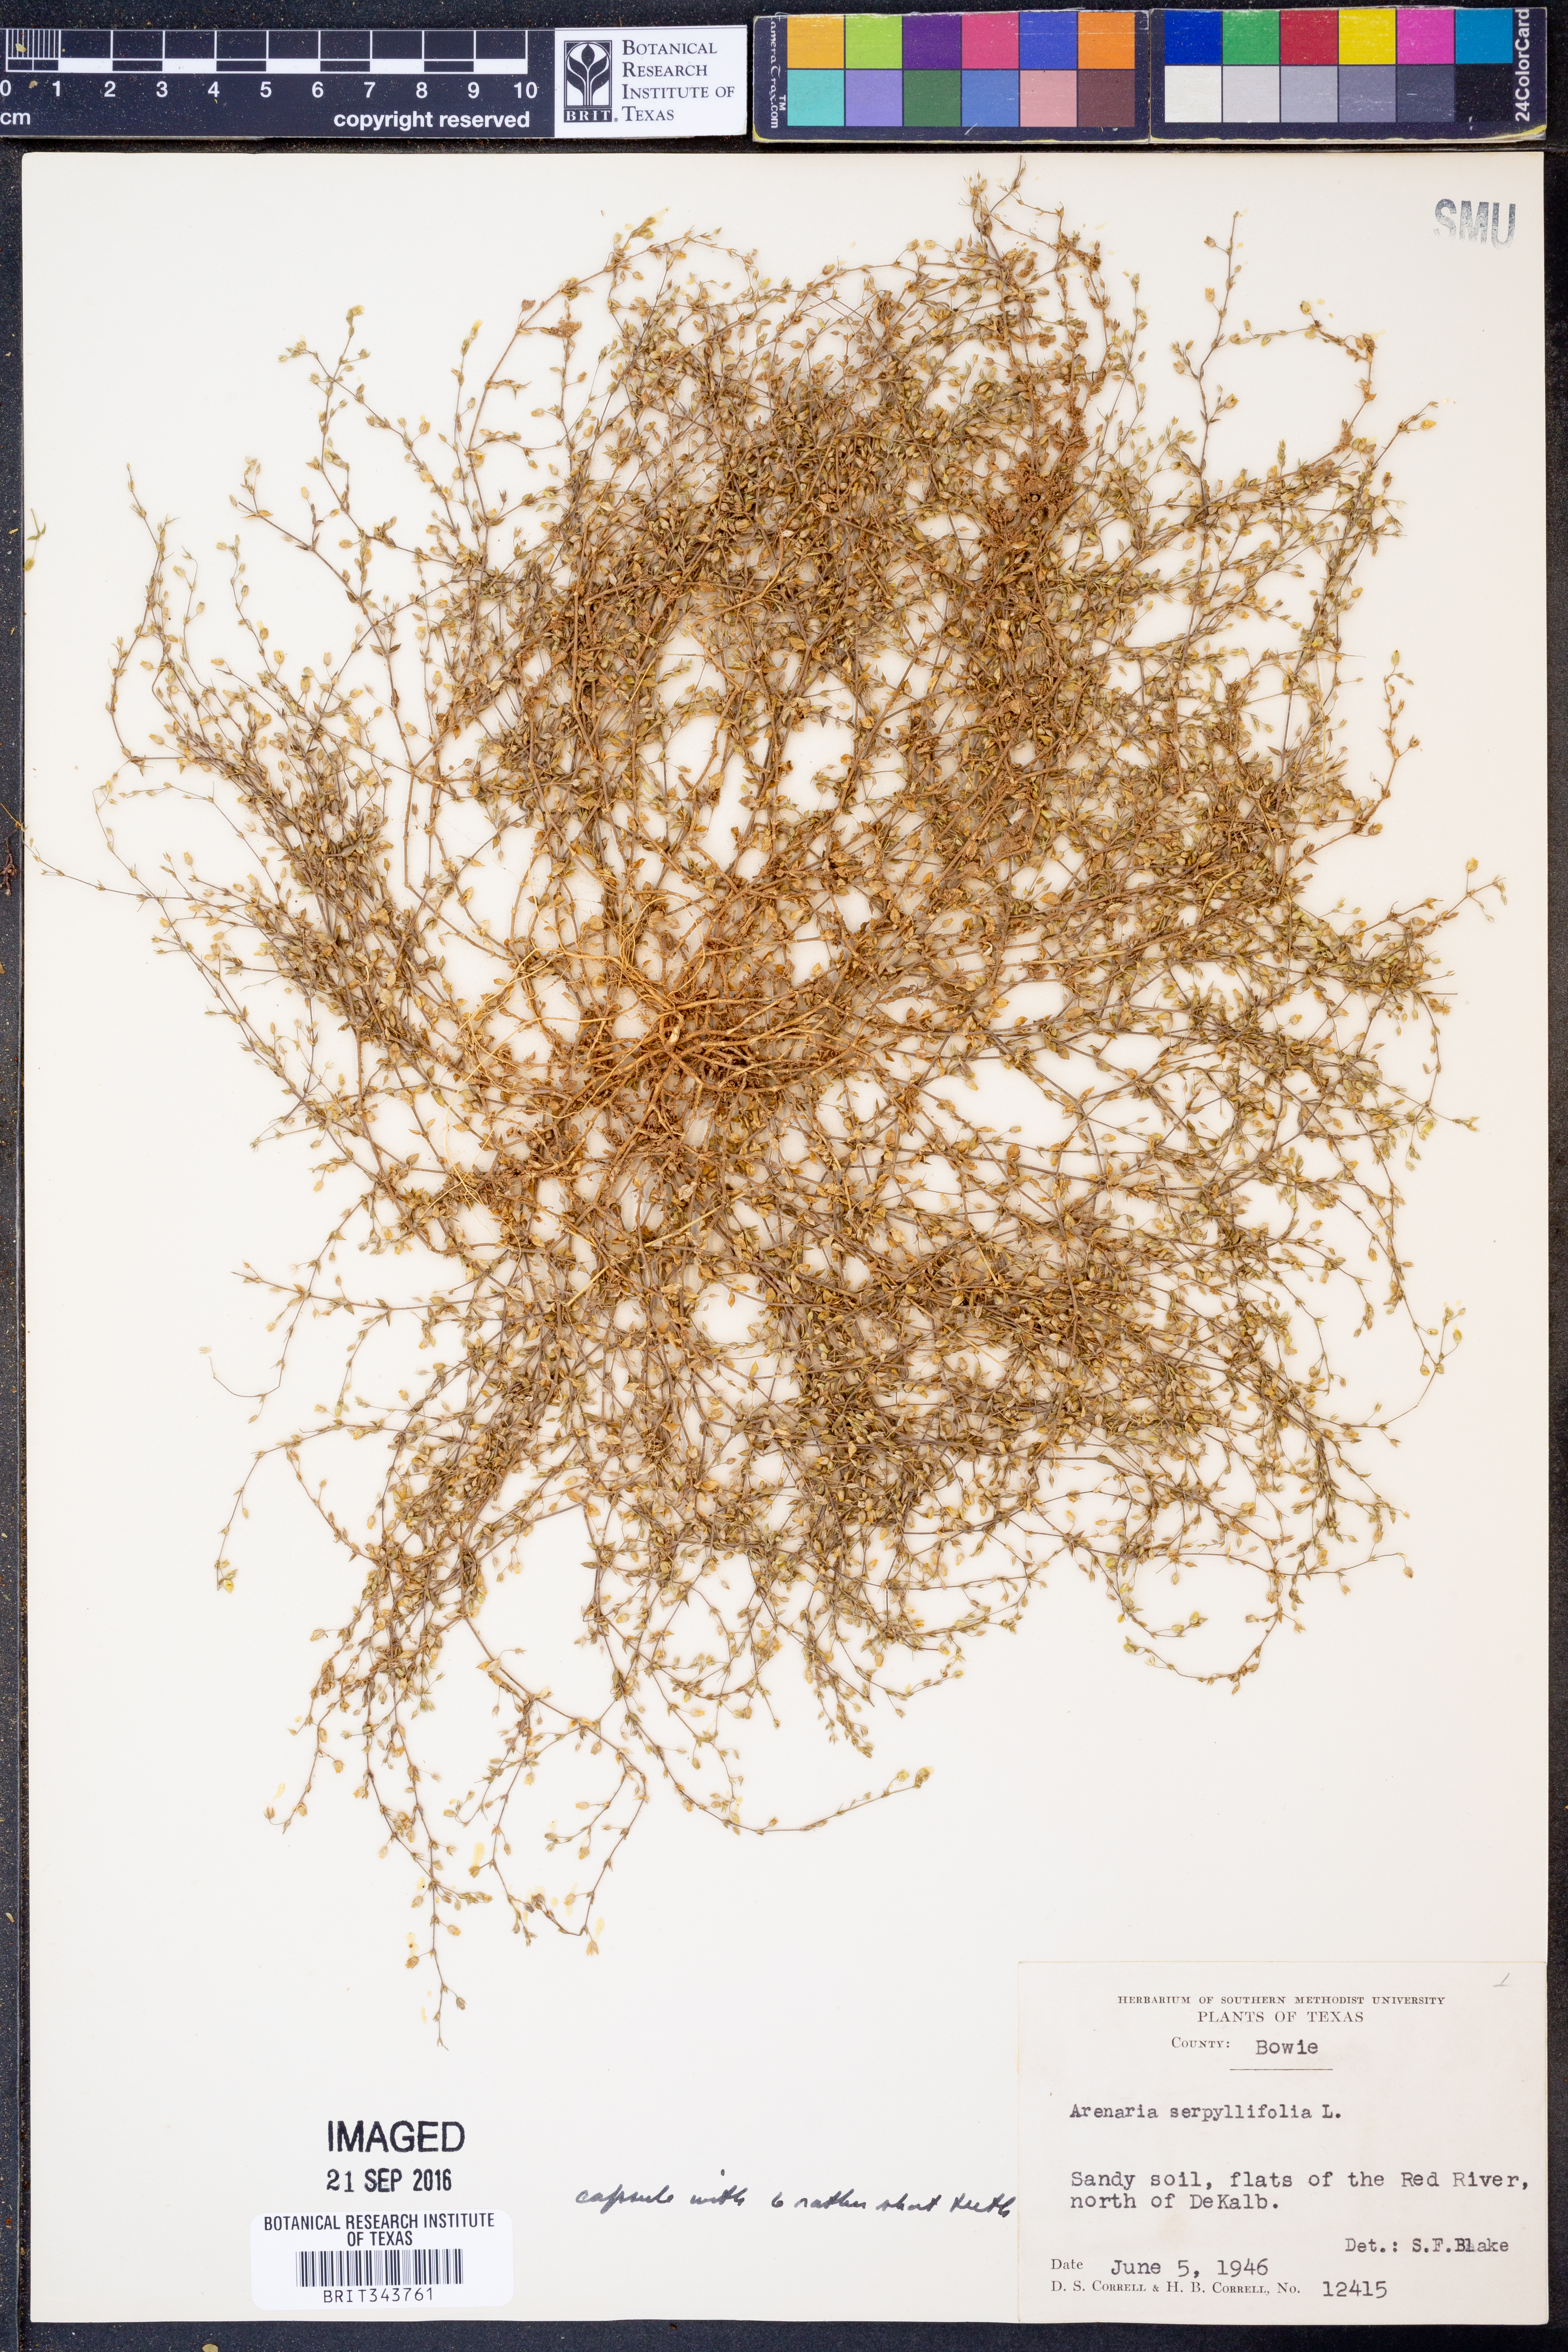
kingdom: Plantae
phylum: Tracheophyta
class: Magnoliopsida
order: Caryophyllales
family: Caryophyllaceae
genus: Arenaria
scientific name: Arenaria serpyllifolia
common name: Thyme-leaved sandwort
